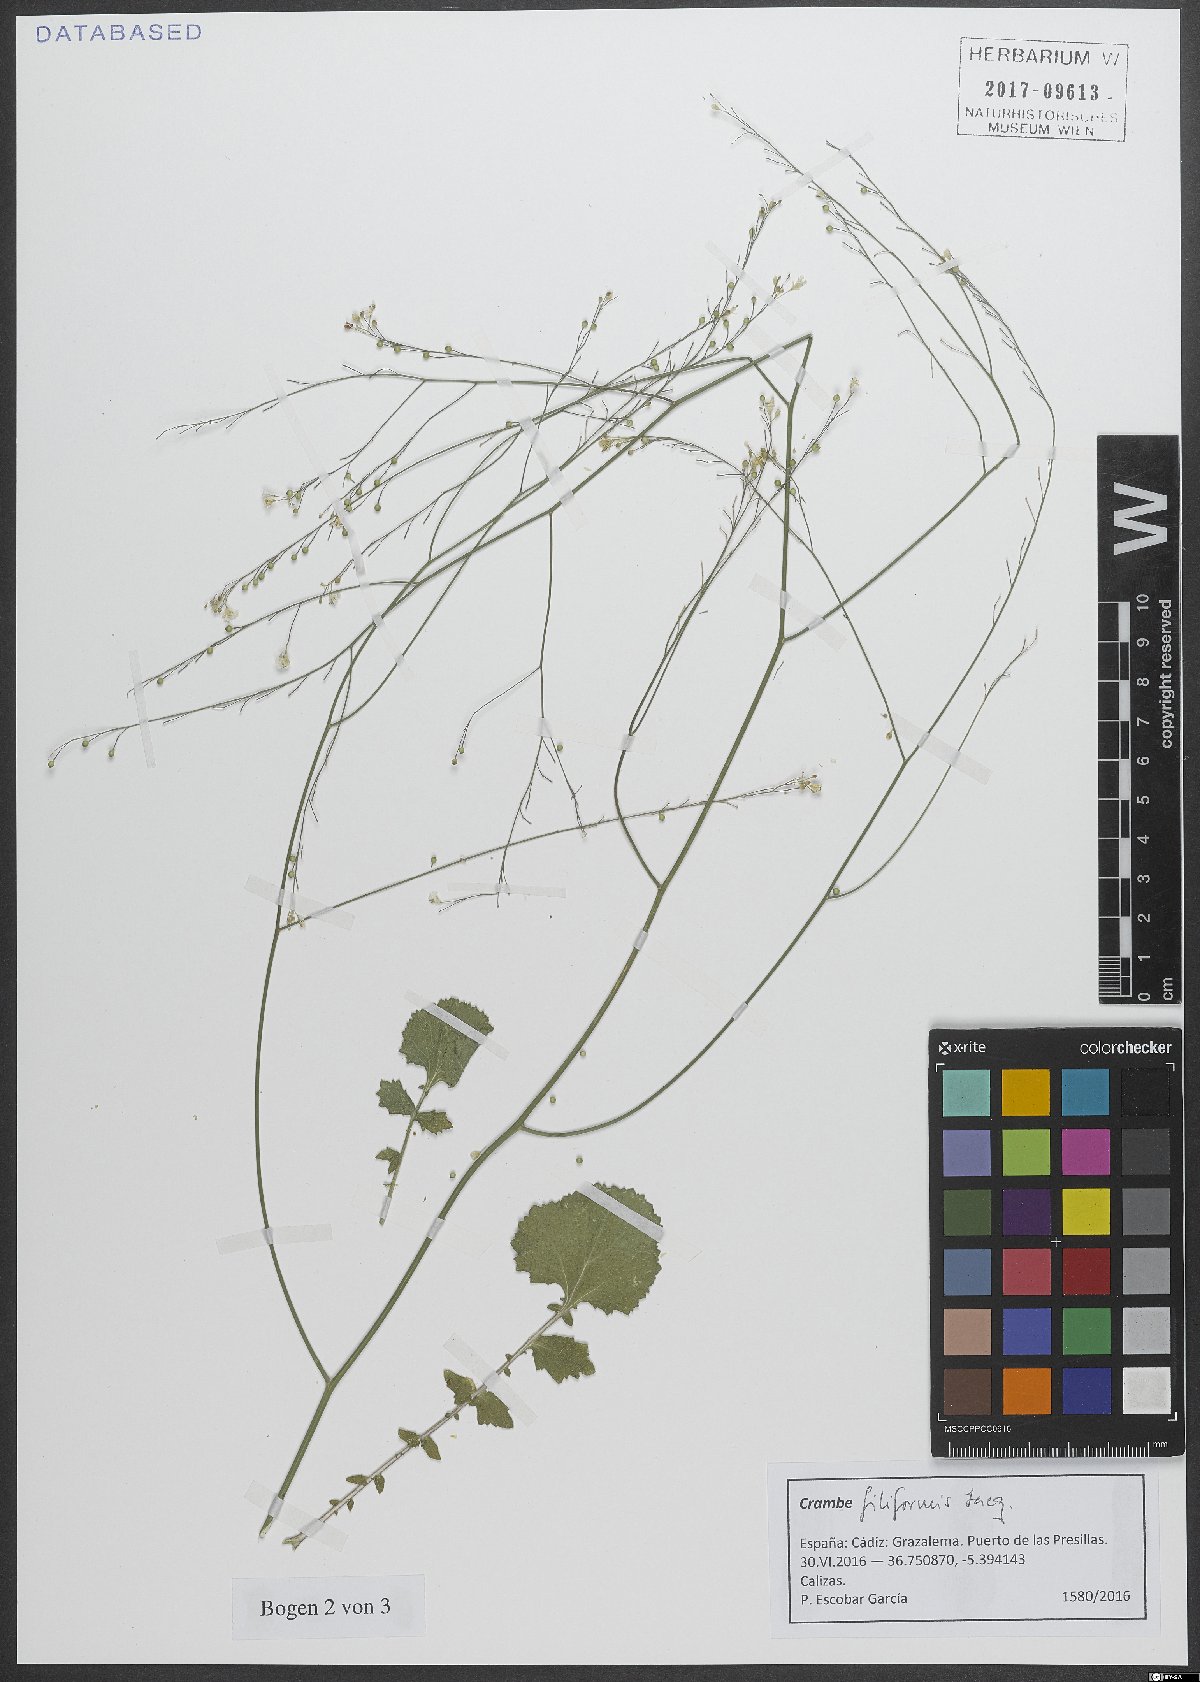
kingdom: Plantae
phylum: Tracheophyta
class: Magnoliopsida
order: Brassicales
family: Brassicaceae
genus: Crambe
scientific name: Crambe filiformis
